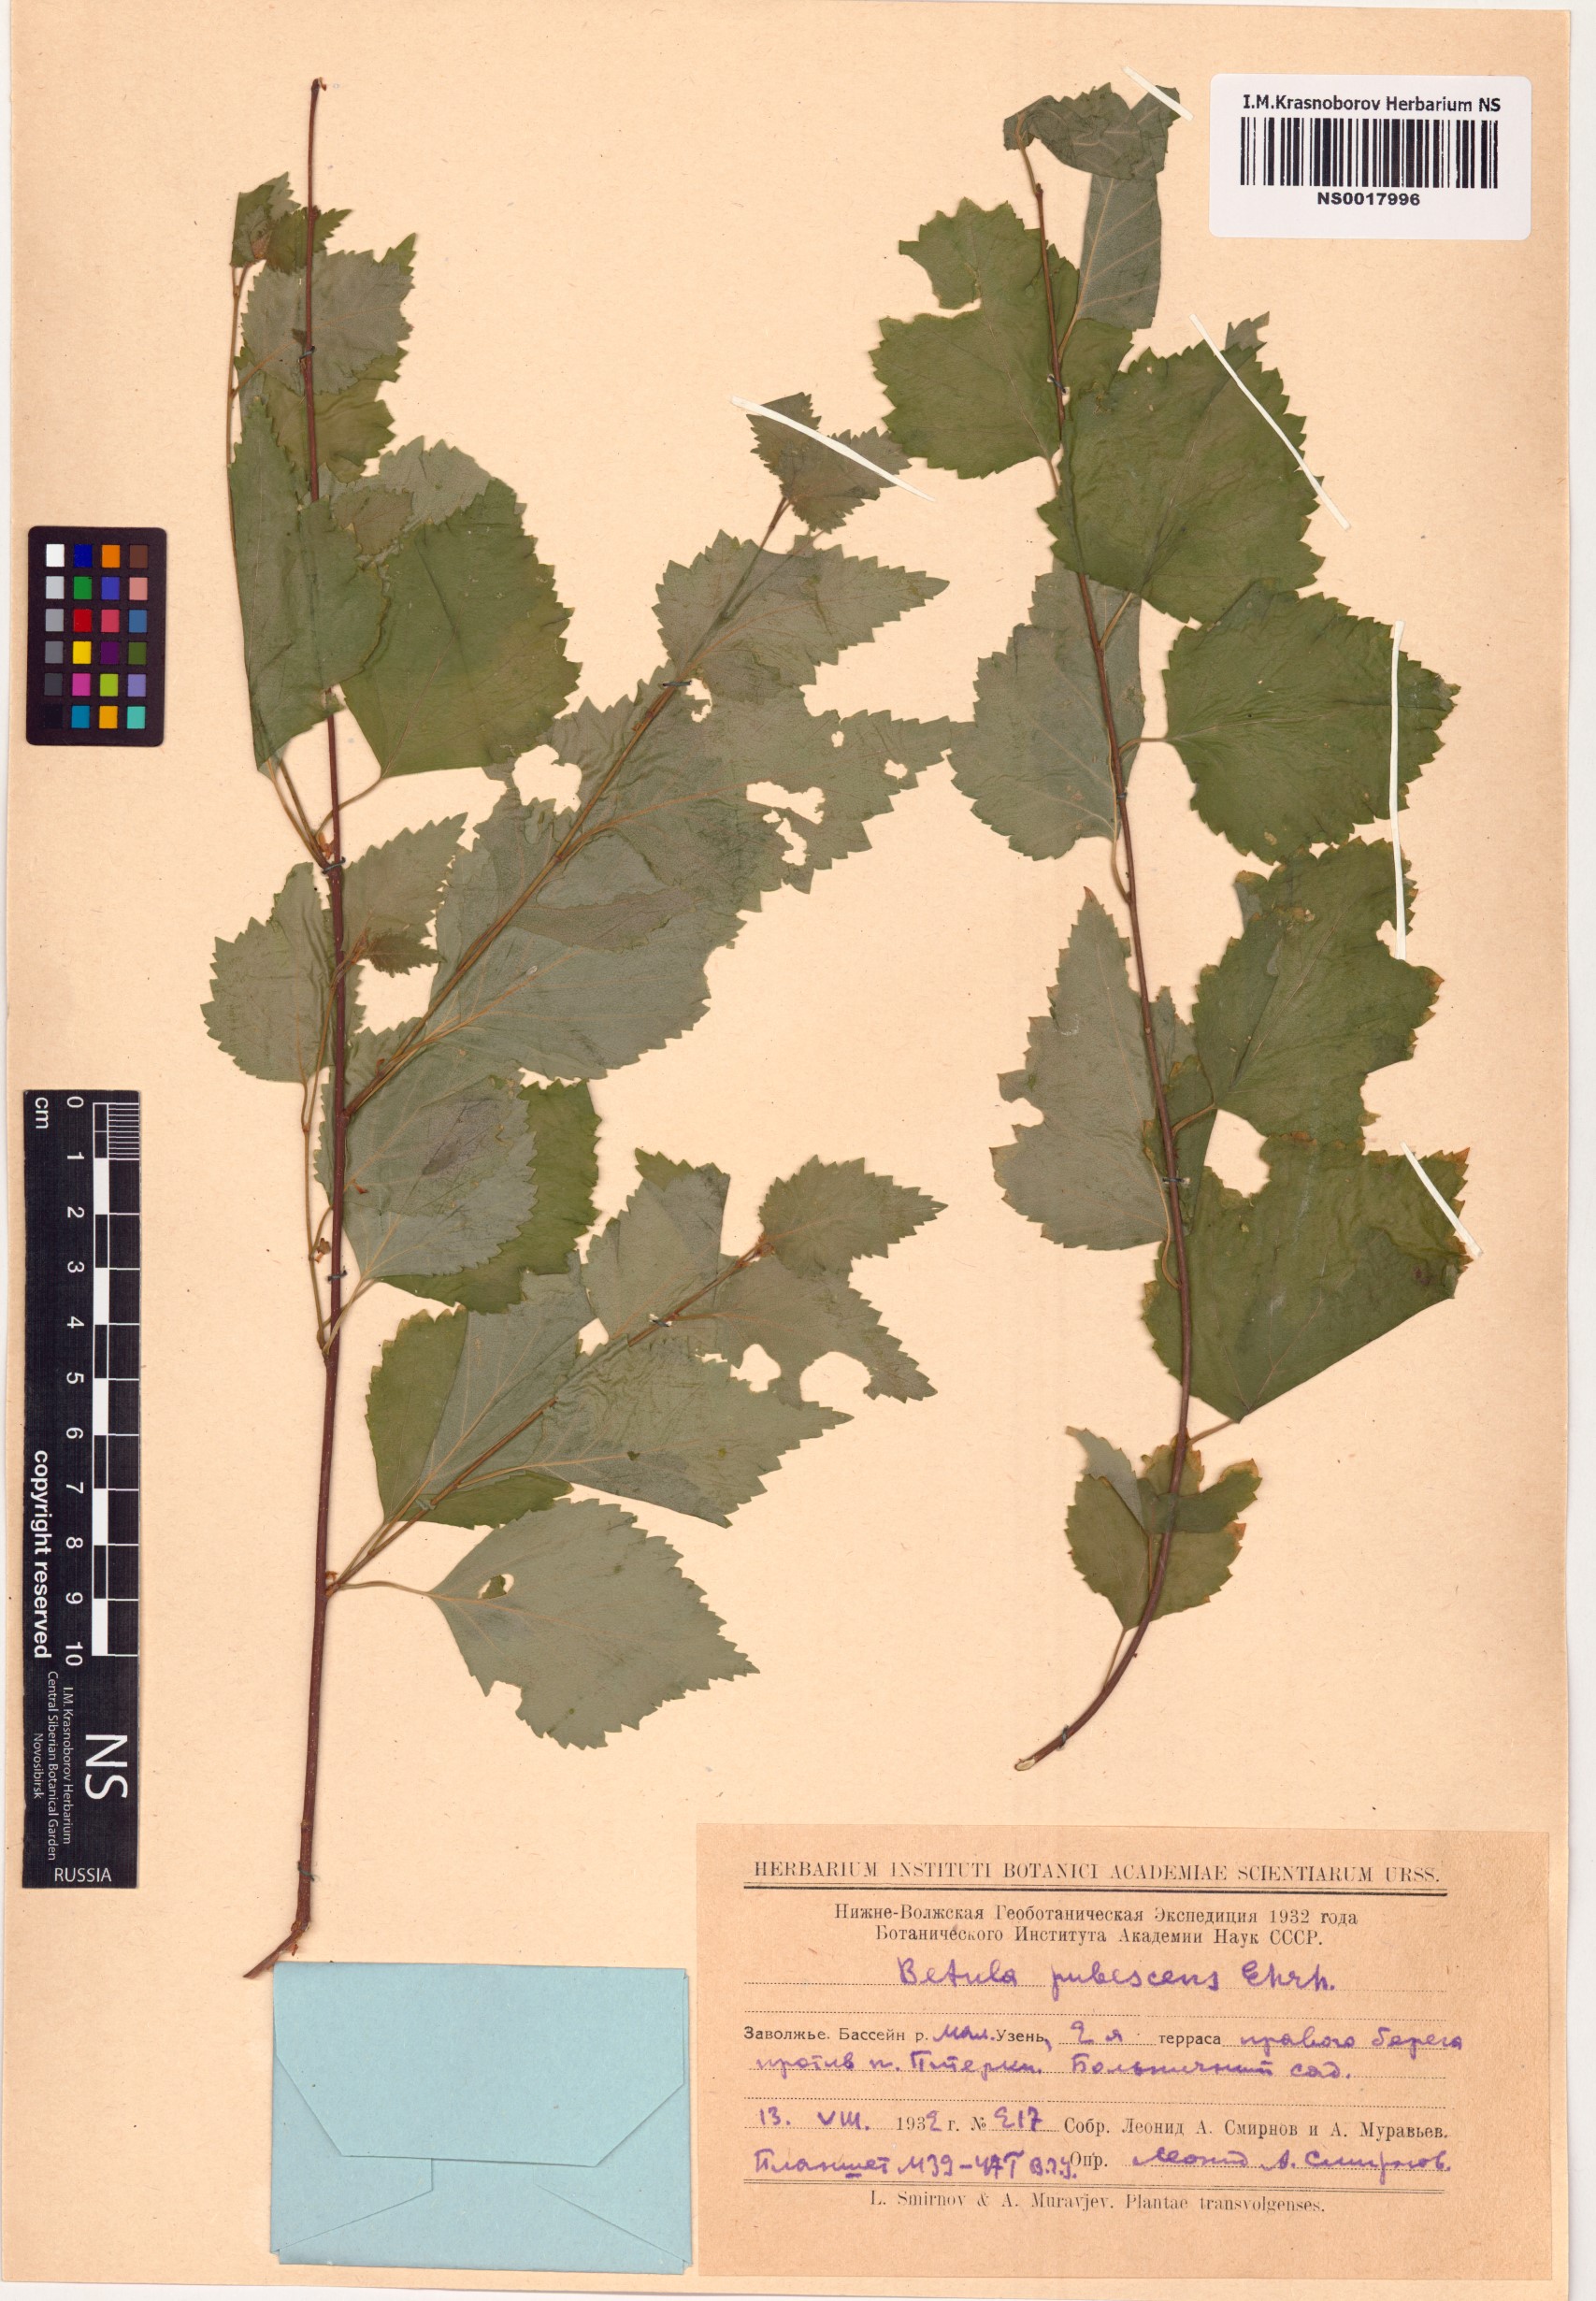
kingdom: Plantae
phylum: Tracheophyta
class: Magnoliopsida
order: Fagales
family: Betulaceae
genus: Betula
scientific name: Betula pubescens
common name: Downy birch
